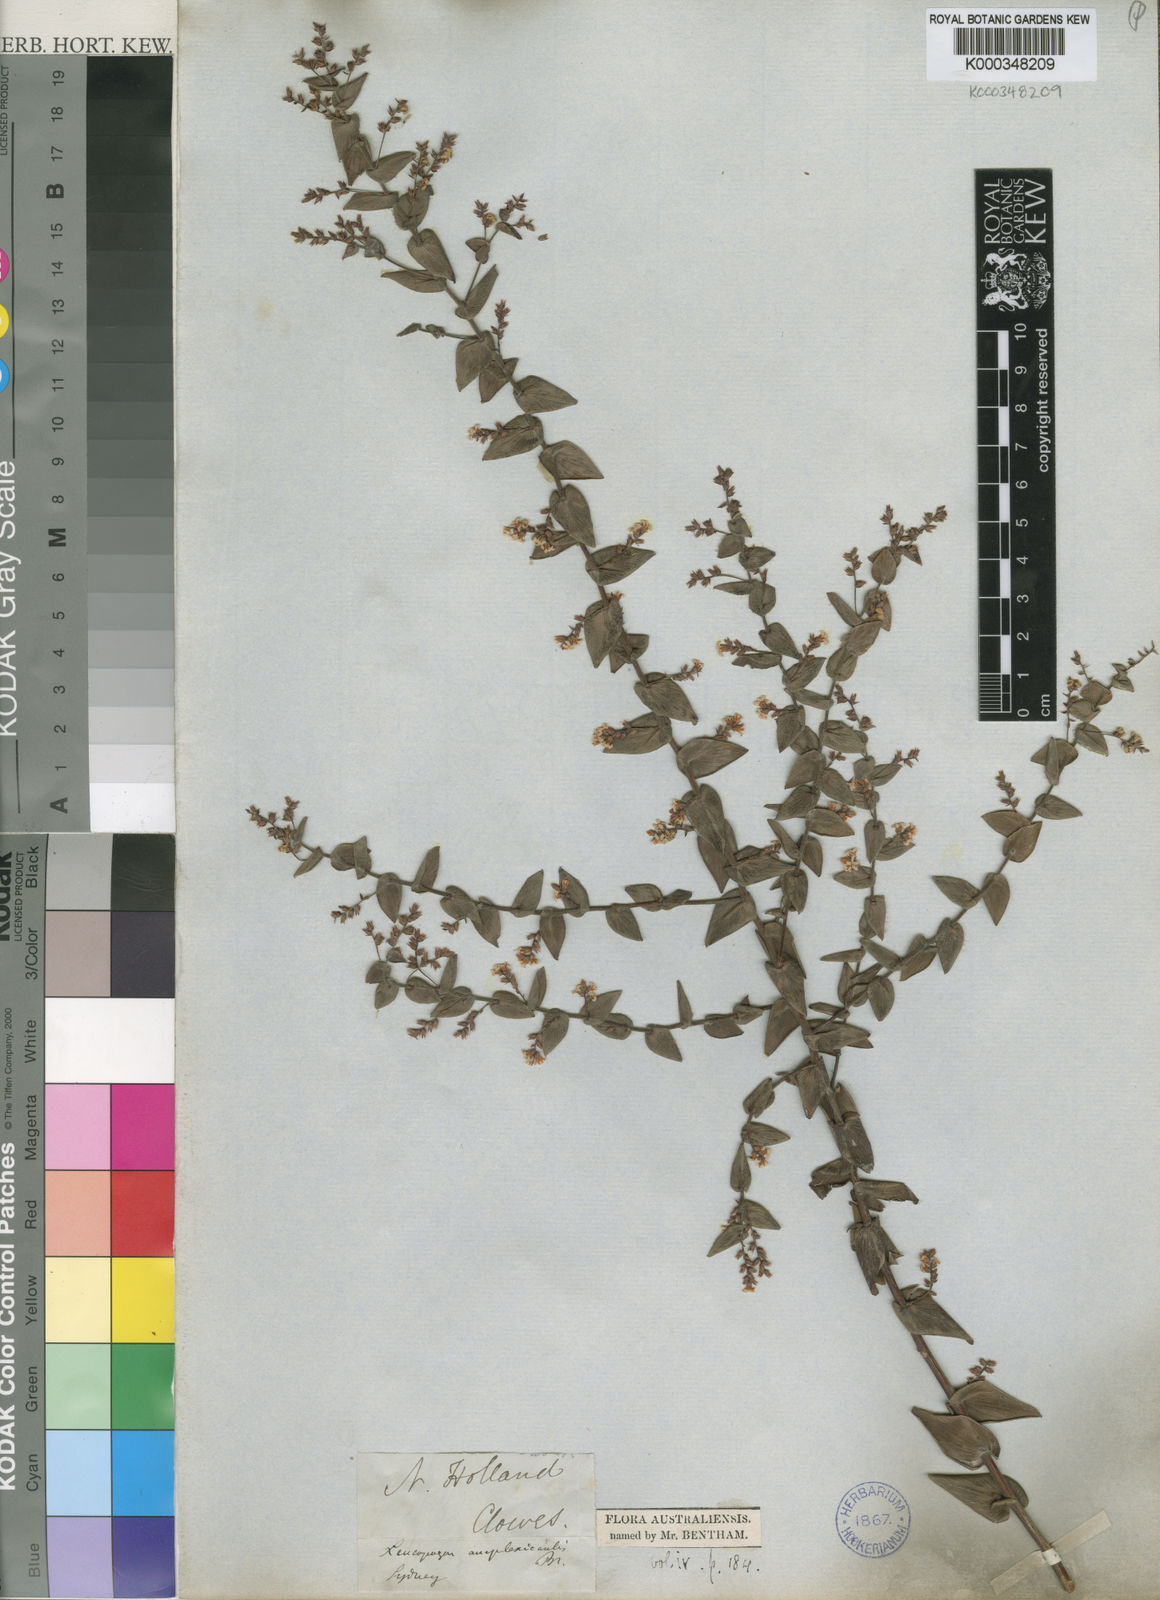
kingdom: Plantae
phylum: Tracheophyta
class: Magnoliopsida
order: Ericales
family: Ericaceae
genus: Leucopogon
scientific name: Leucopogon amplexicaulis
